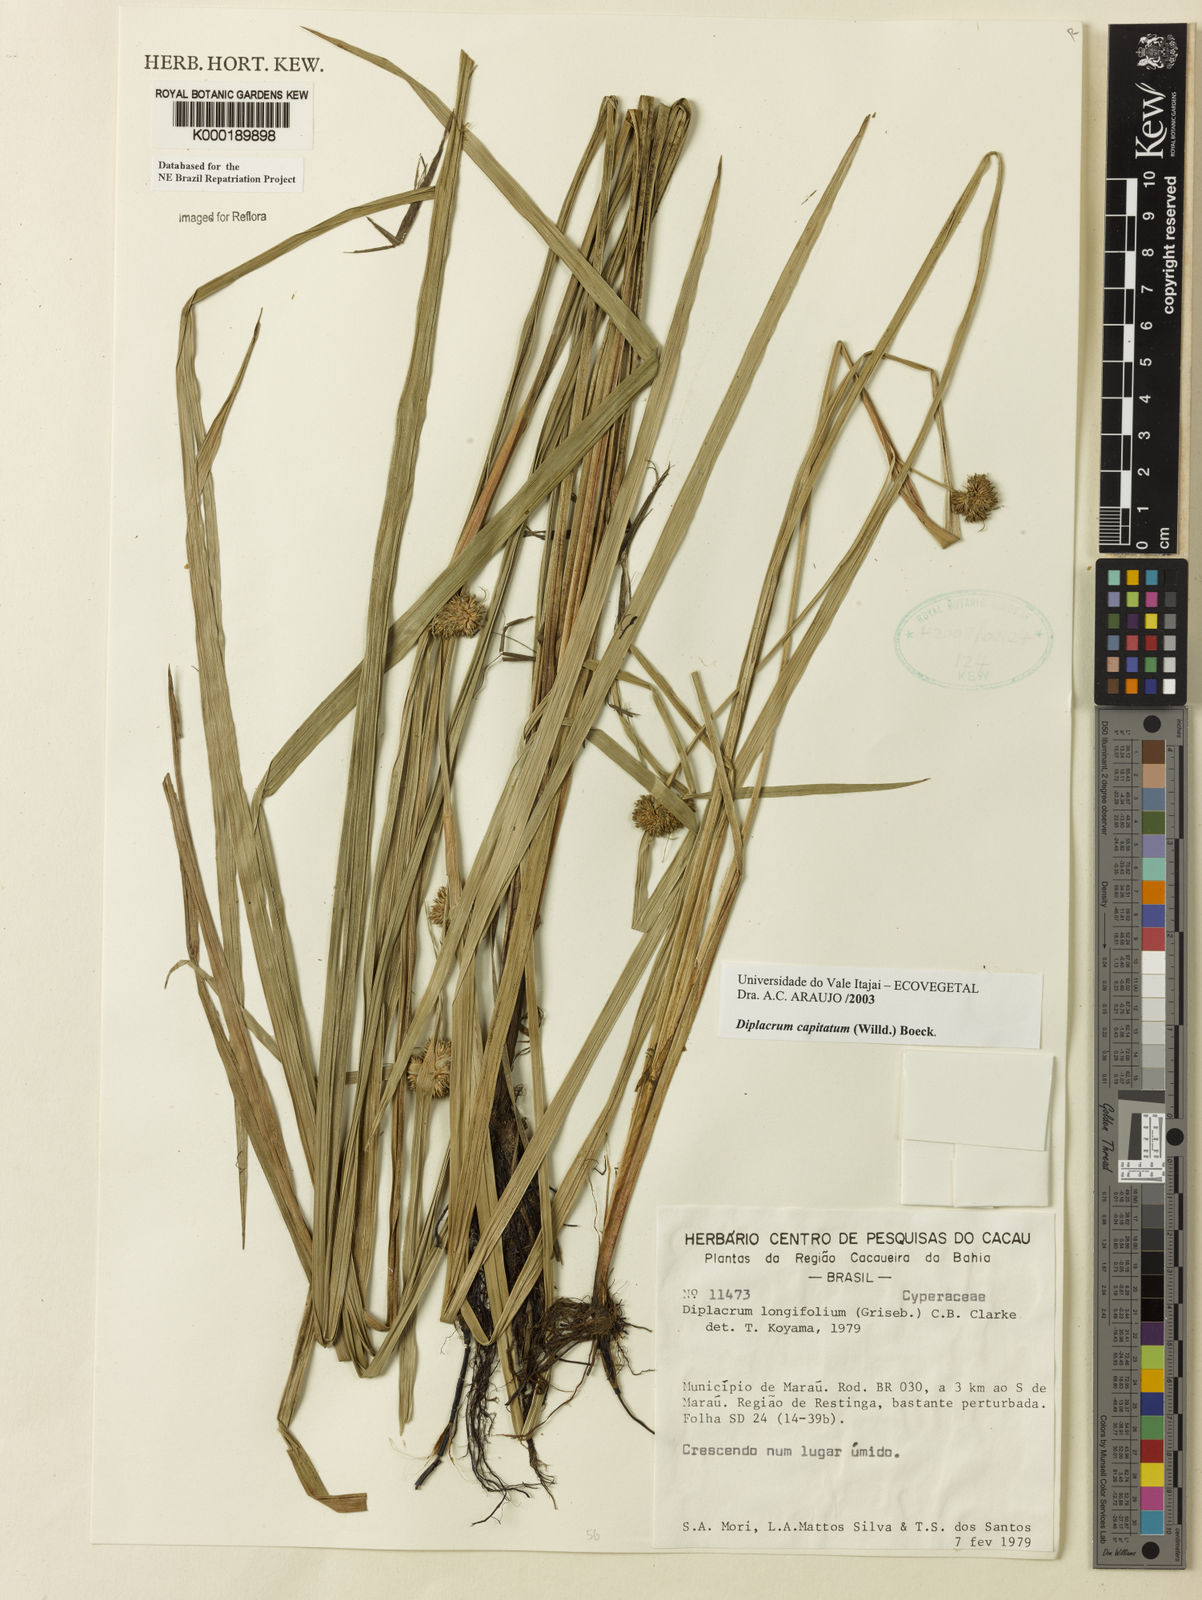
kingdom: Plantae
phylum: Tracheophyta
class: Liliopsida
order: Poales
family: Cyperaceae
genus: Diplacrum
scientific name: Diplacrum capitatum
